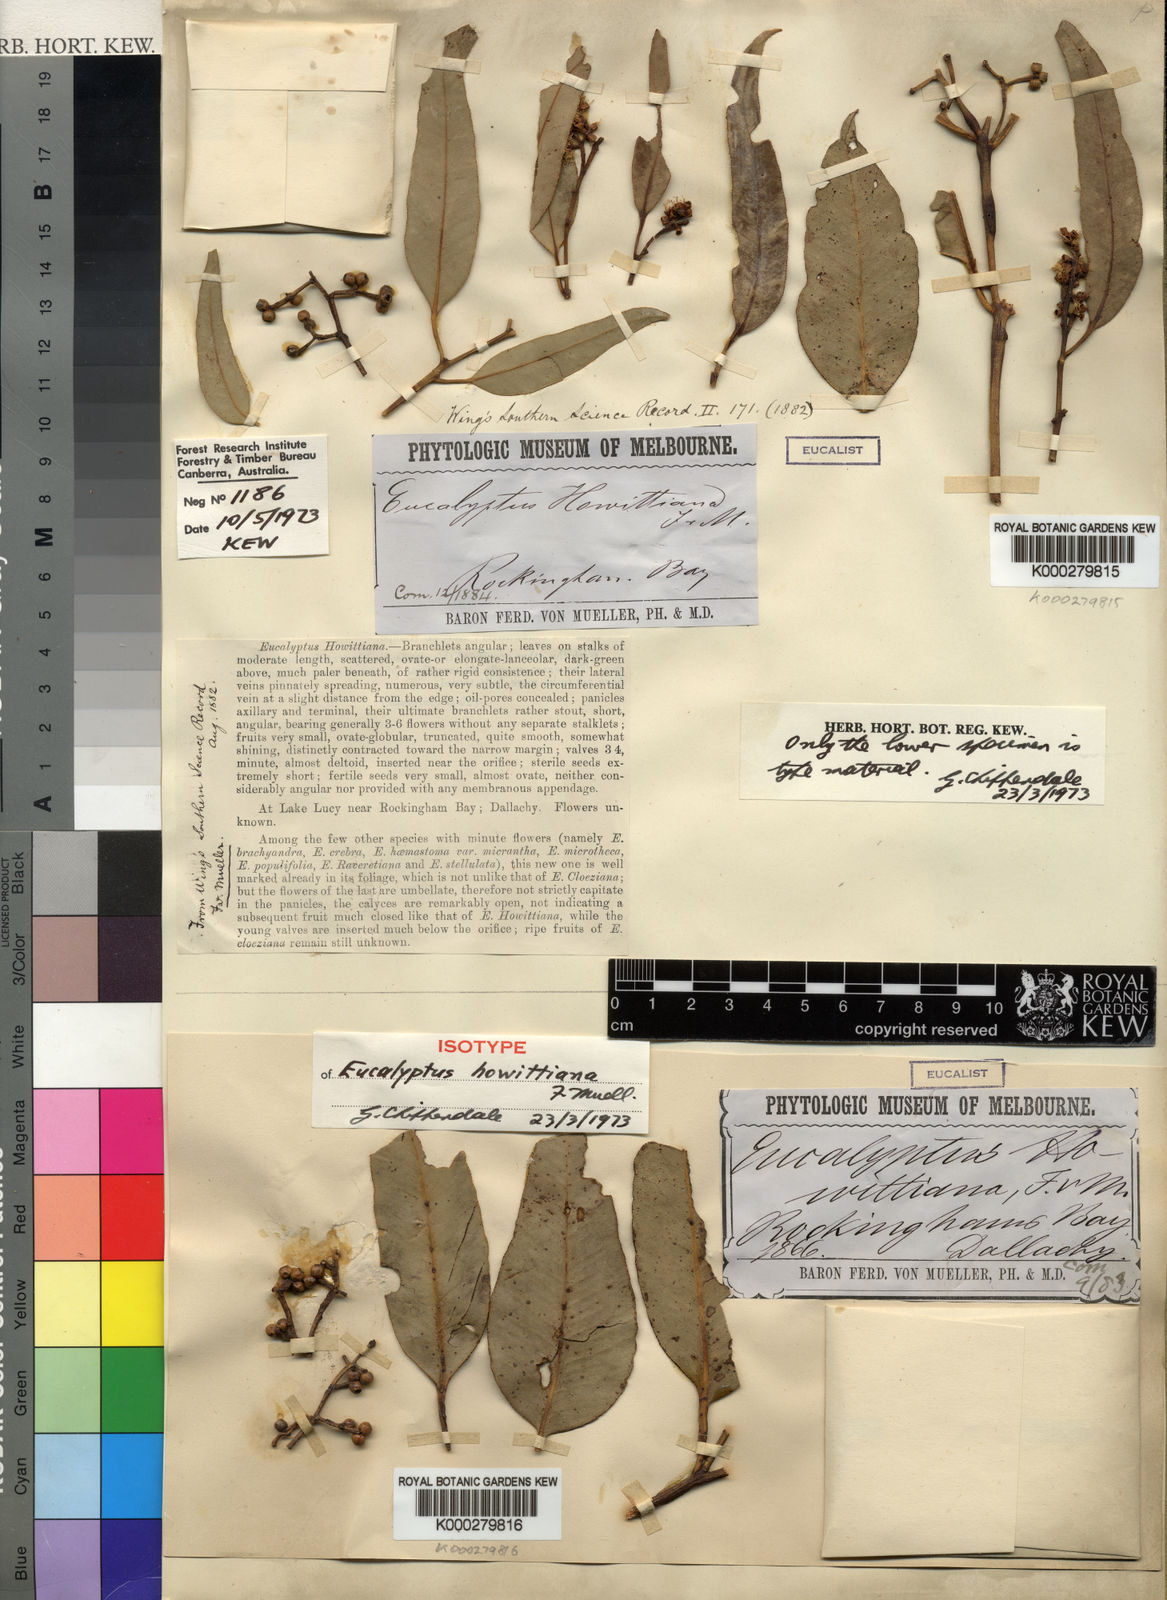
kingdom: Plantae
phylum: Tracheophyta
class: Magnoliopsida
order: Myrtales
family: Myrtaceae
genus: Eucalyptus
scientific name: Eucalyptus howittiana
